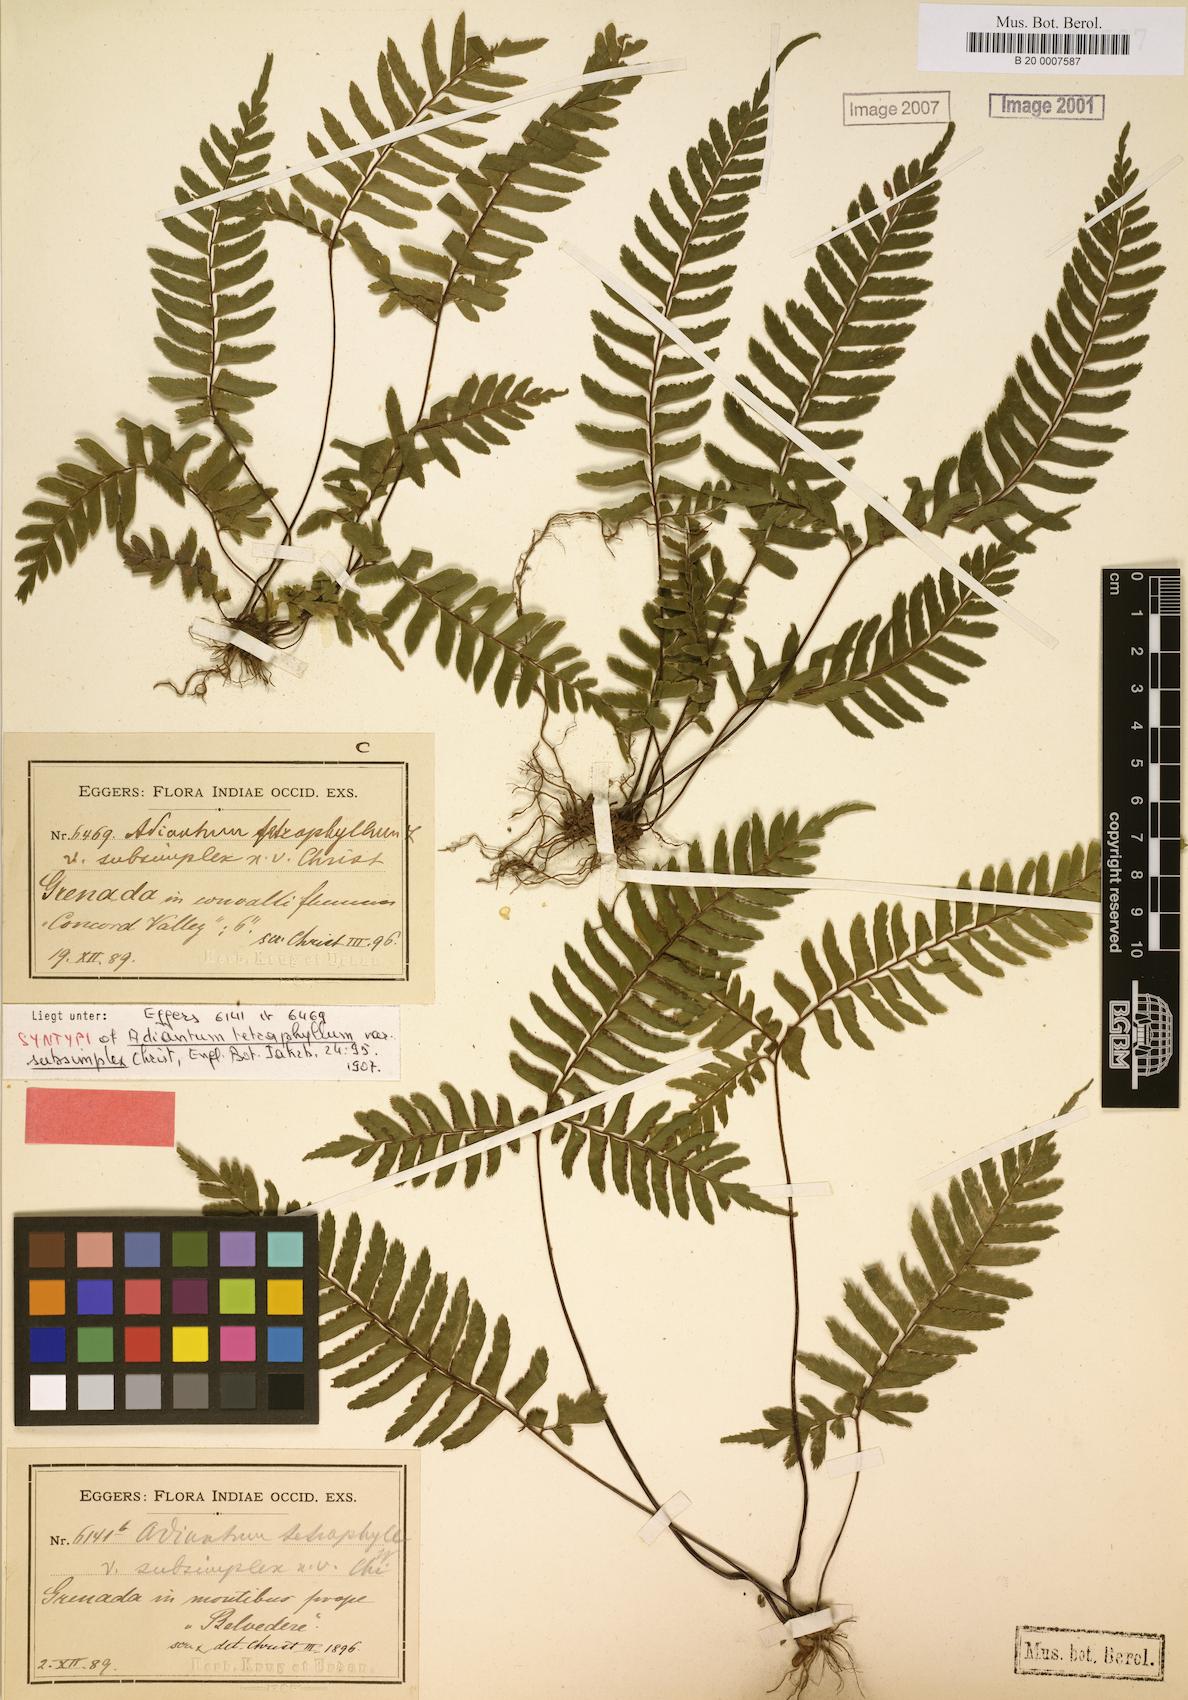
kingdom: Plantae
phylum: Tracheophyta
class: Polypodiopsida
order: Polypodiales
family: Pteridaceae
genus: Adiantum
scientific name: Adiantum tetraphyllum
